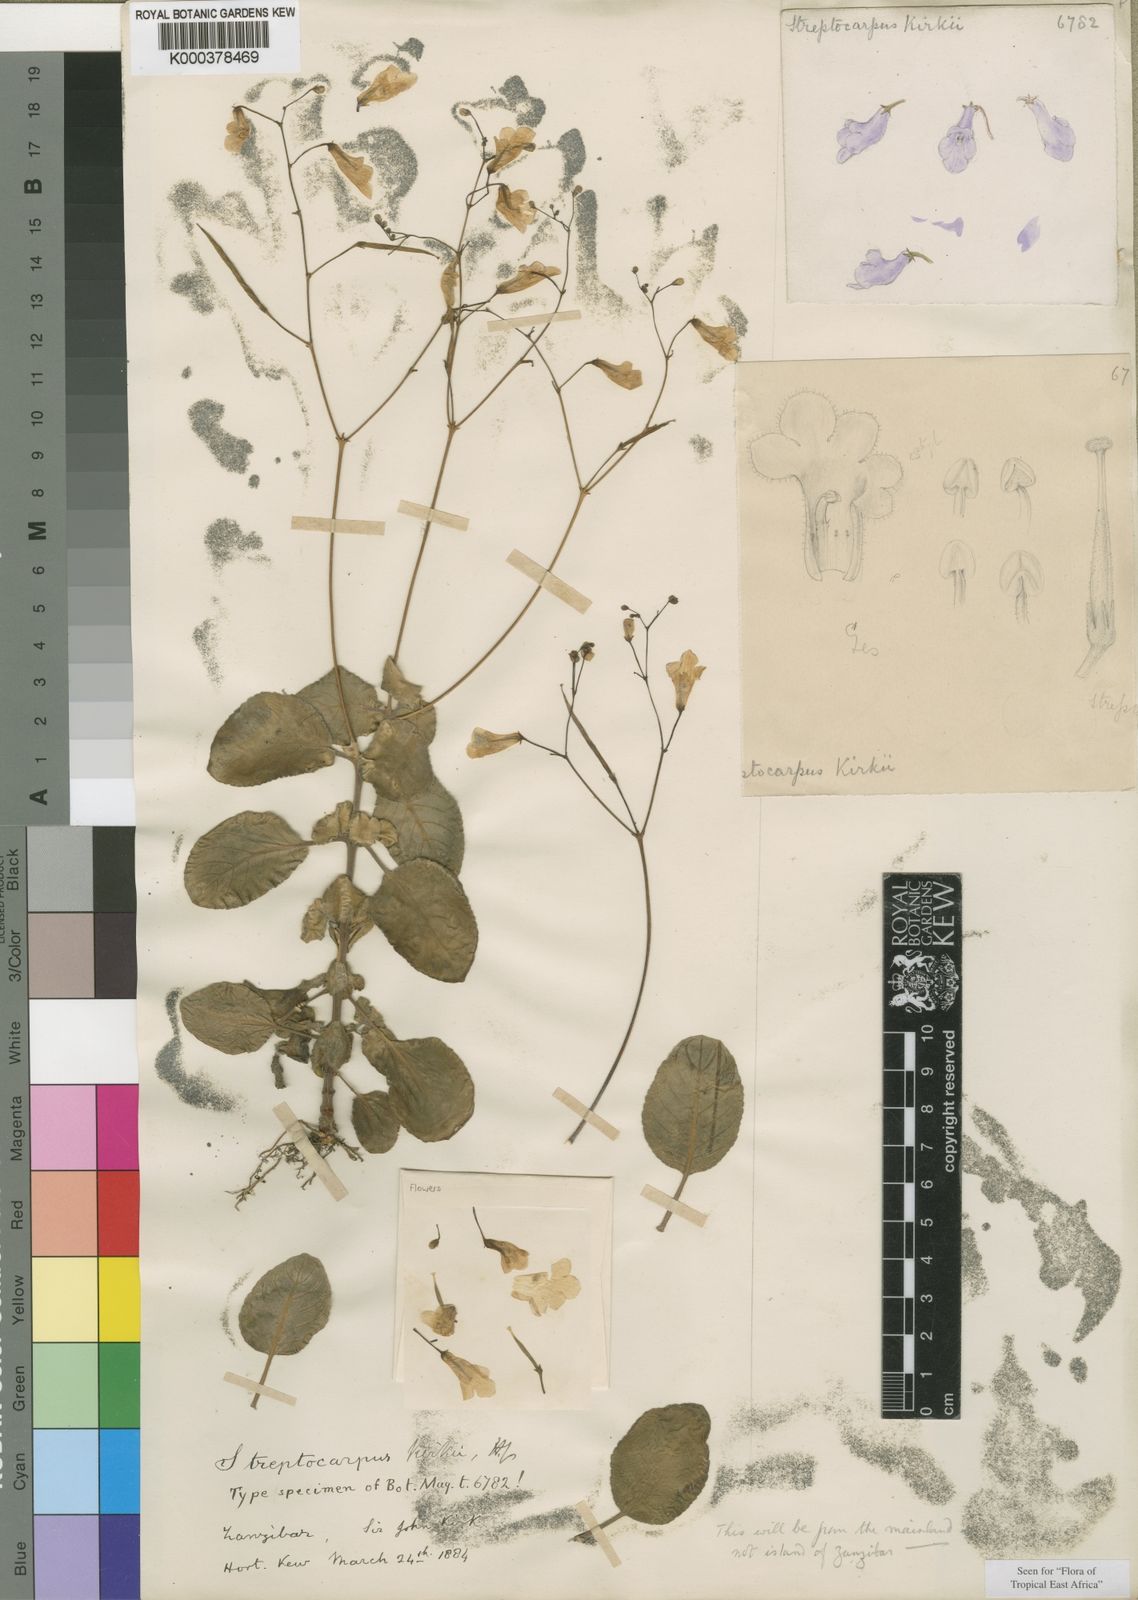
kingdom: Plantae
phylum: Tracheophyta
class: Magnoliopsida
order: Lamiales
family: Gesneriaceae
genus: Streptocarpus
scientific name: Streptocarpus kirkii
